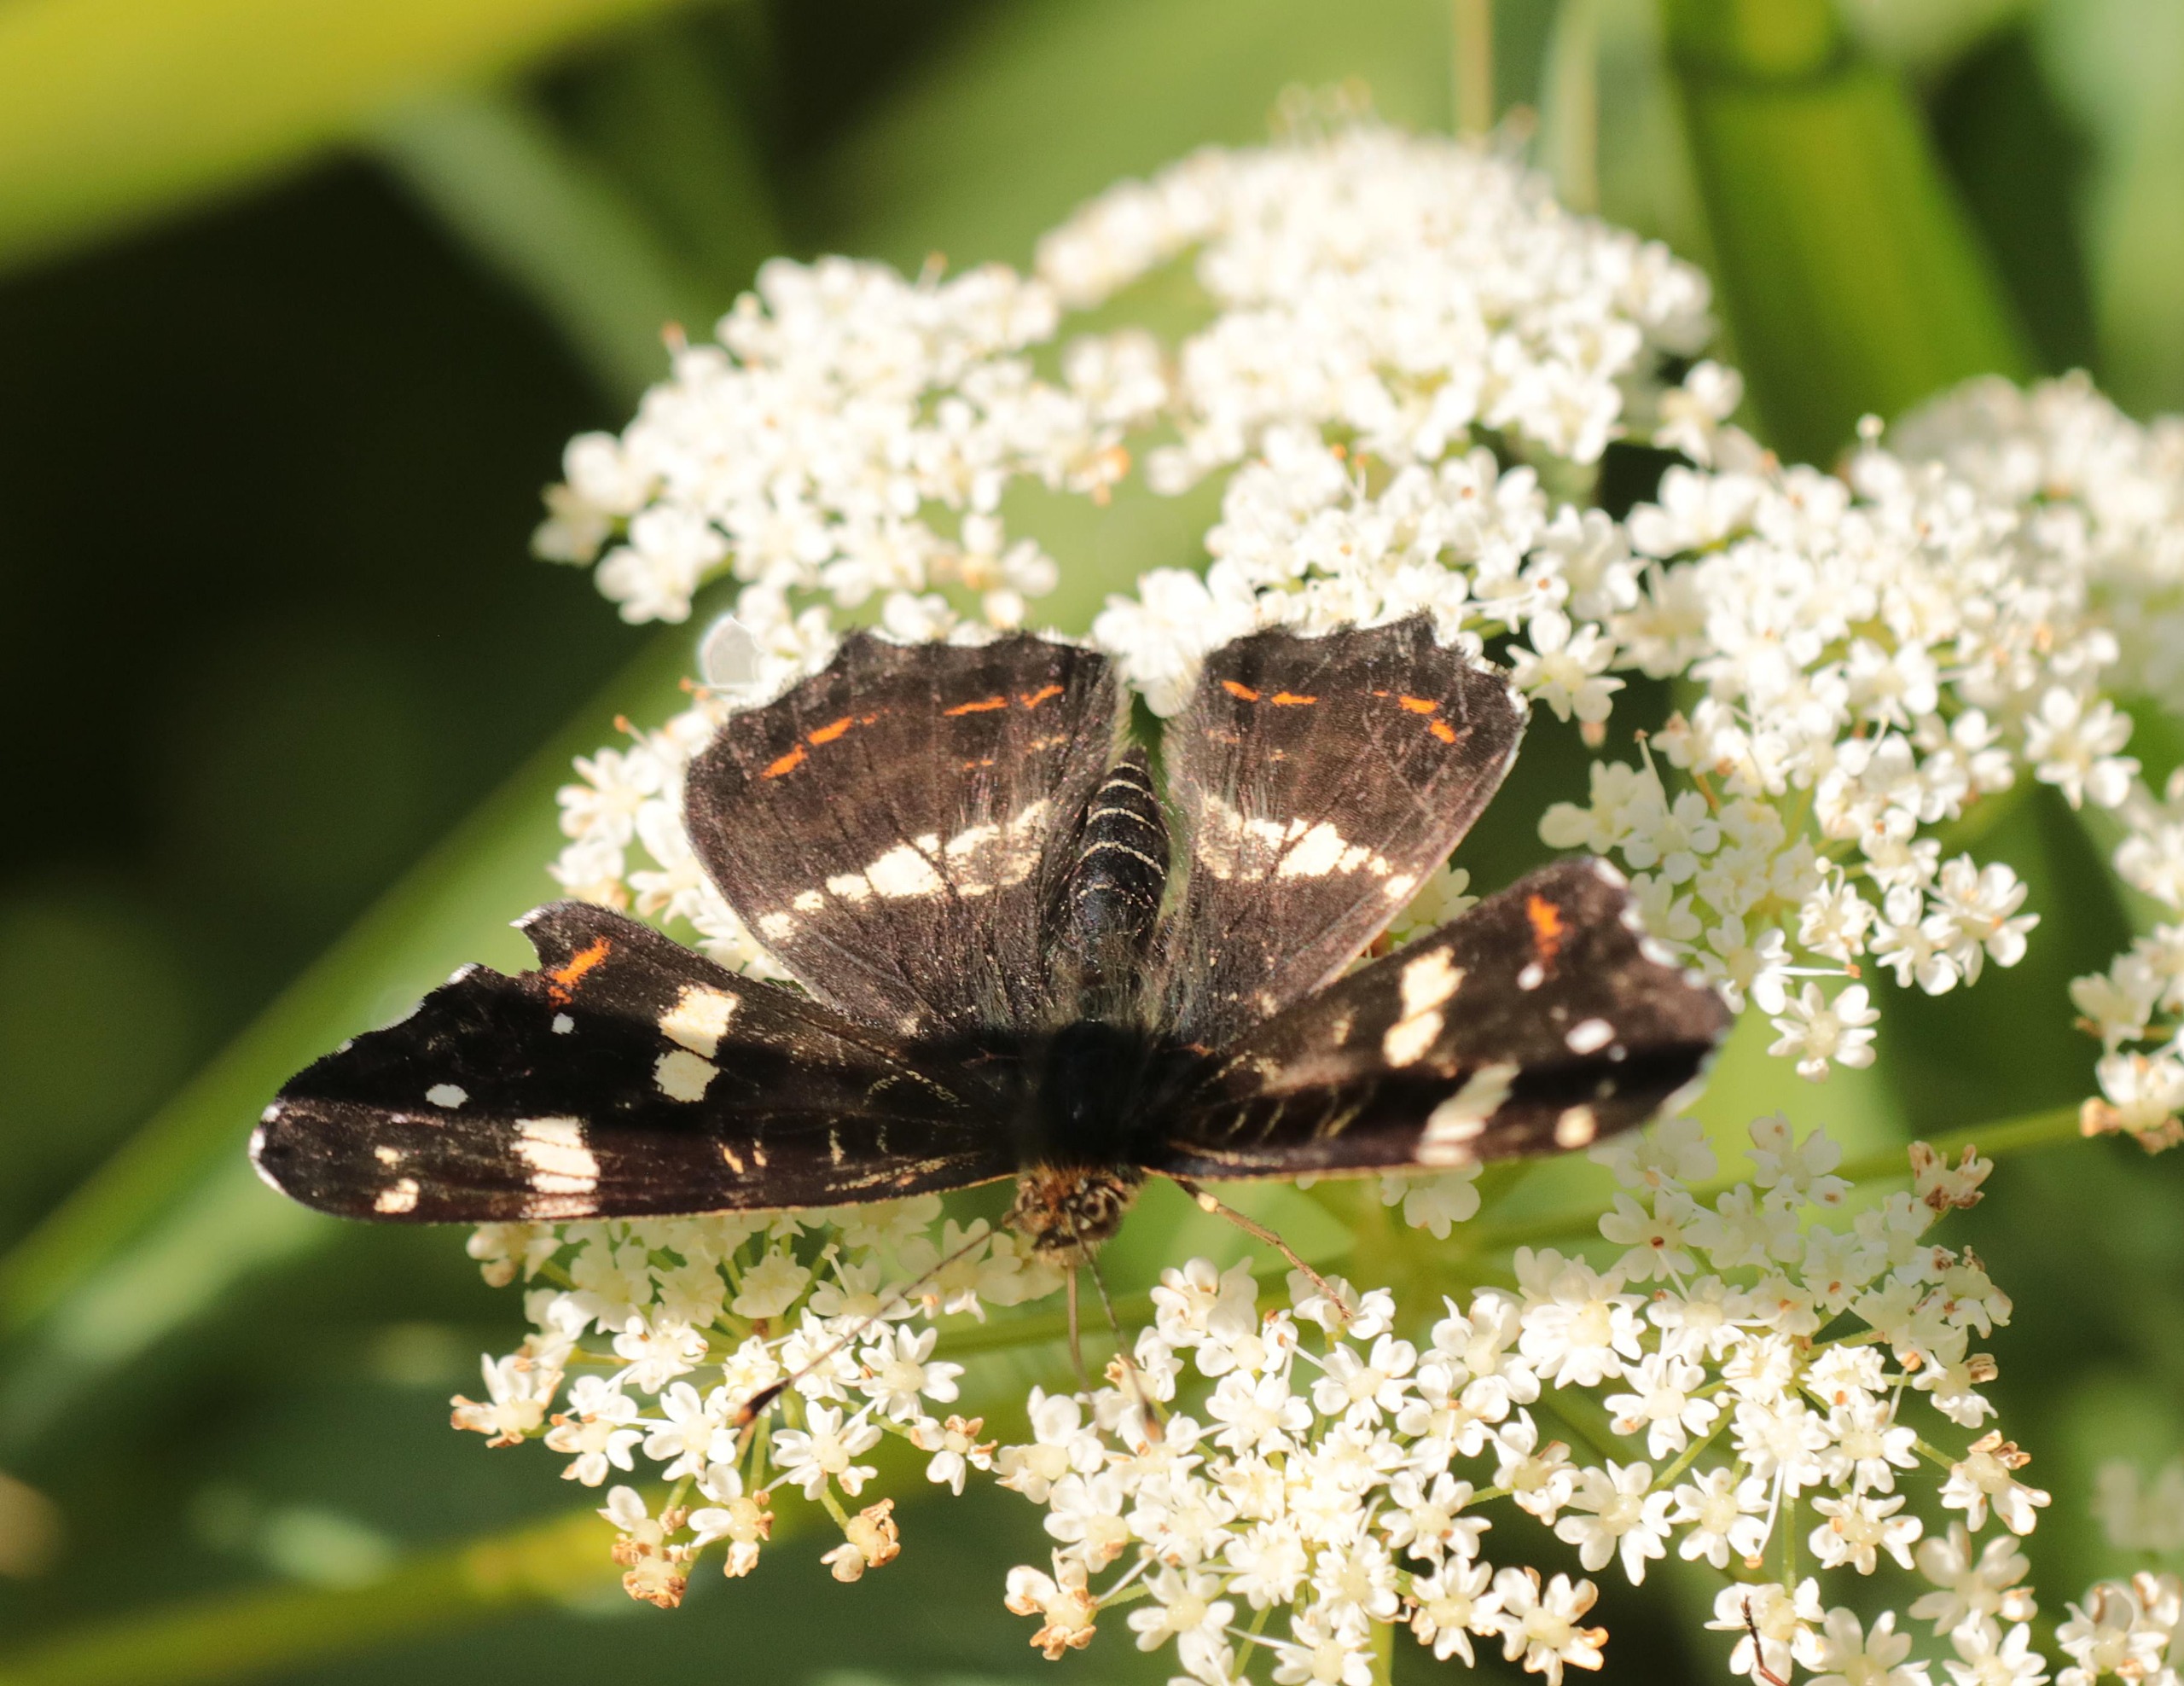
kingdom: Animalia
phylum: Arthropoda
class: Insecta
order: Lepidoptera
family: Nymphalidae
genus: Araschnia
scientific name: Araschnia levana
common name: Nældesommerfugl
